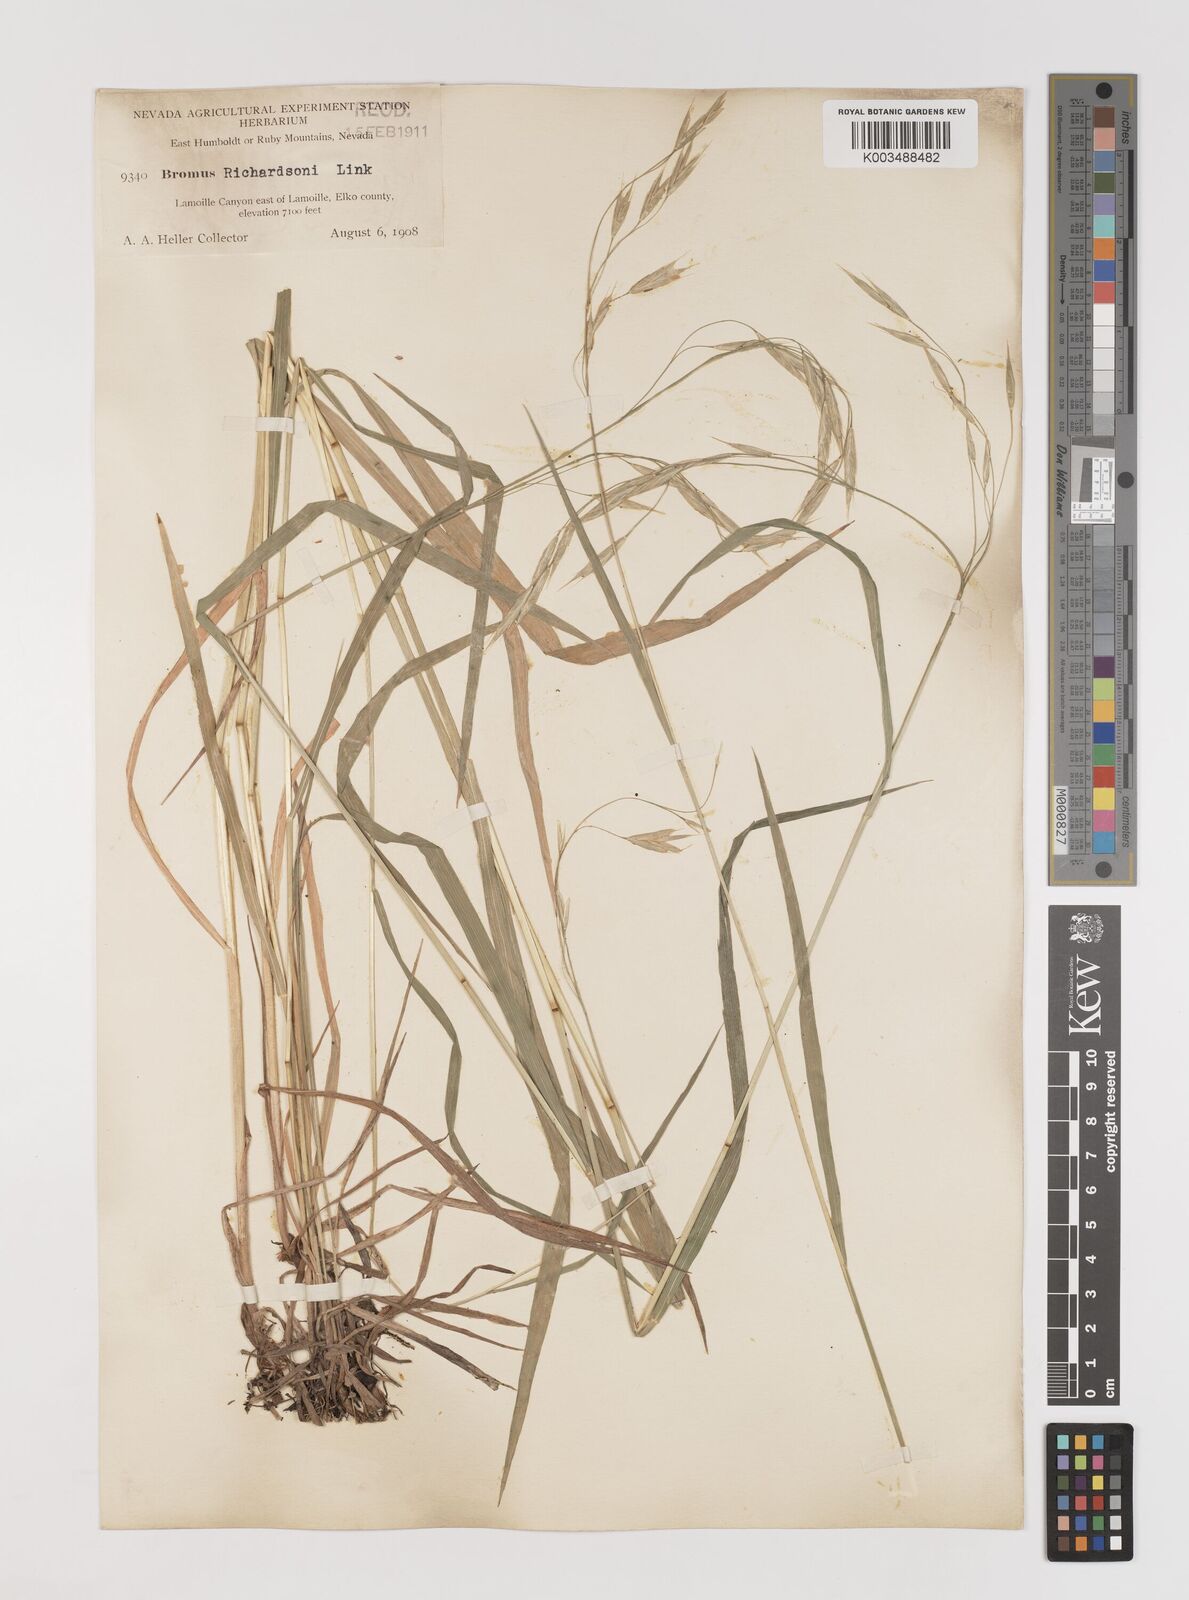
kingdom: Plantae
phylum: Tracheophyta
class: Liliopsida
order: Poales
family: Poaceae
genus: Bromus
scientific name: Bromus richardsonii
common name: Richardson's brome
